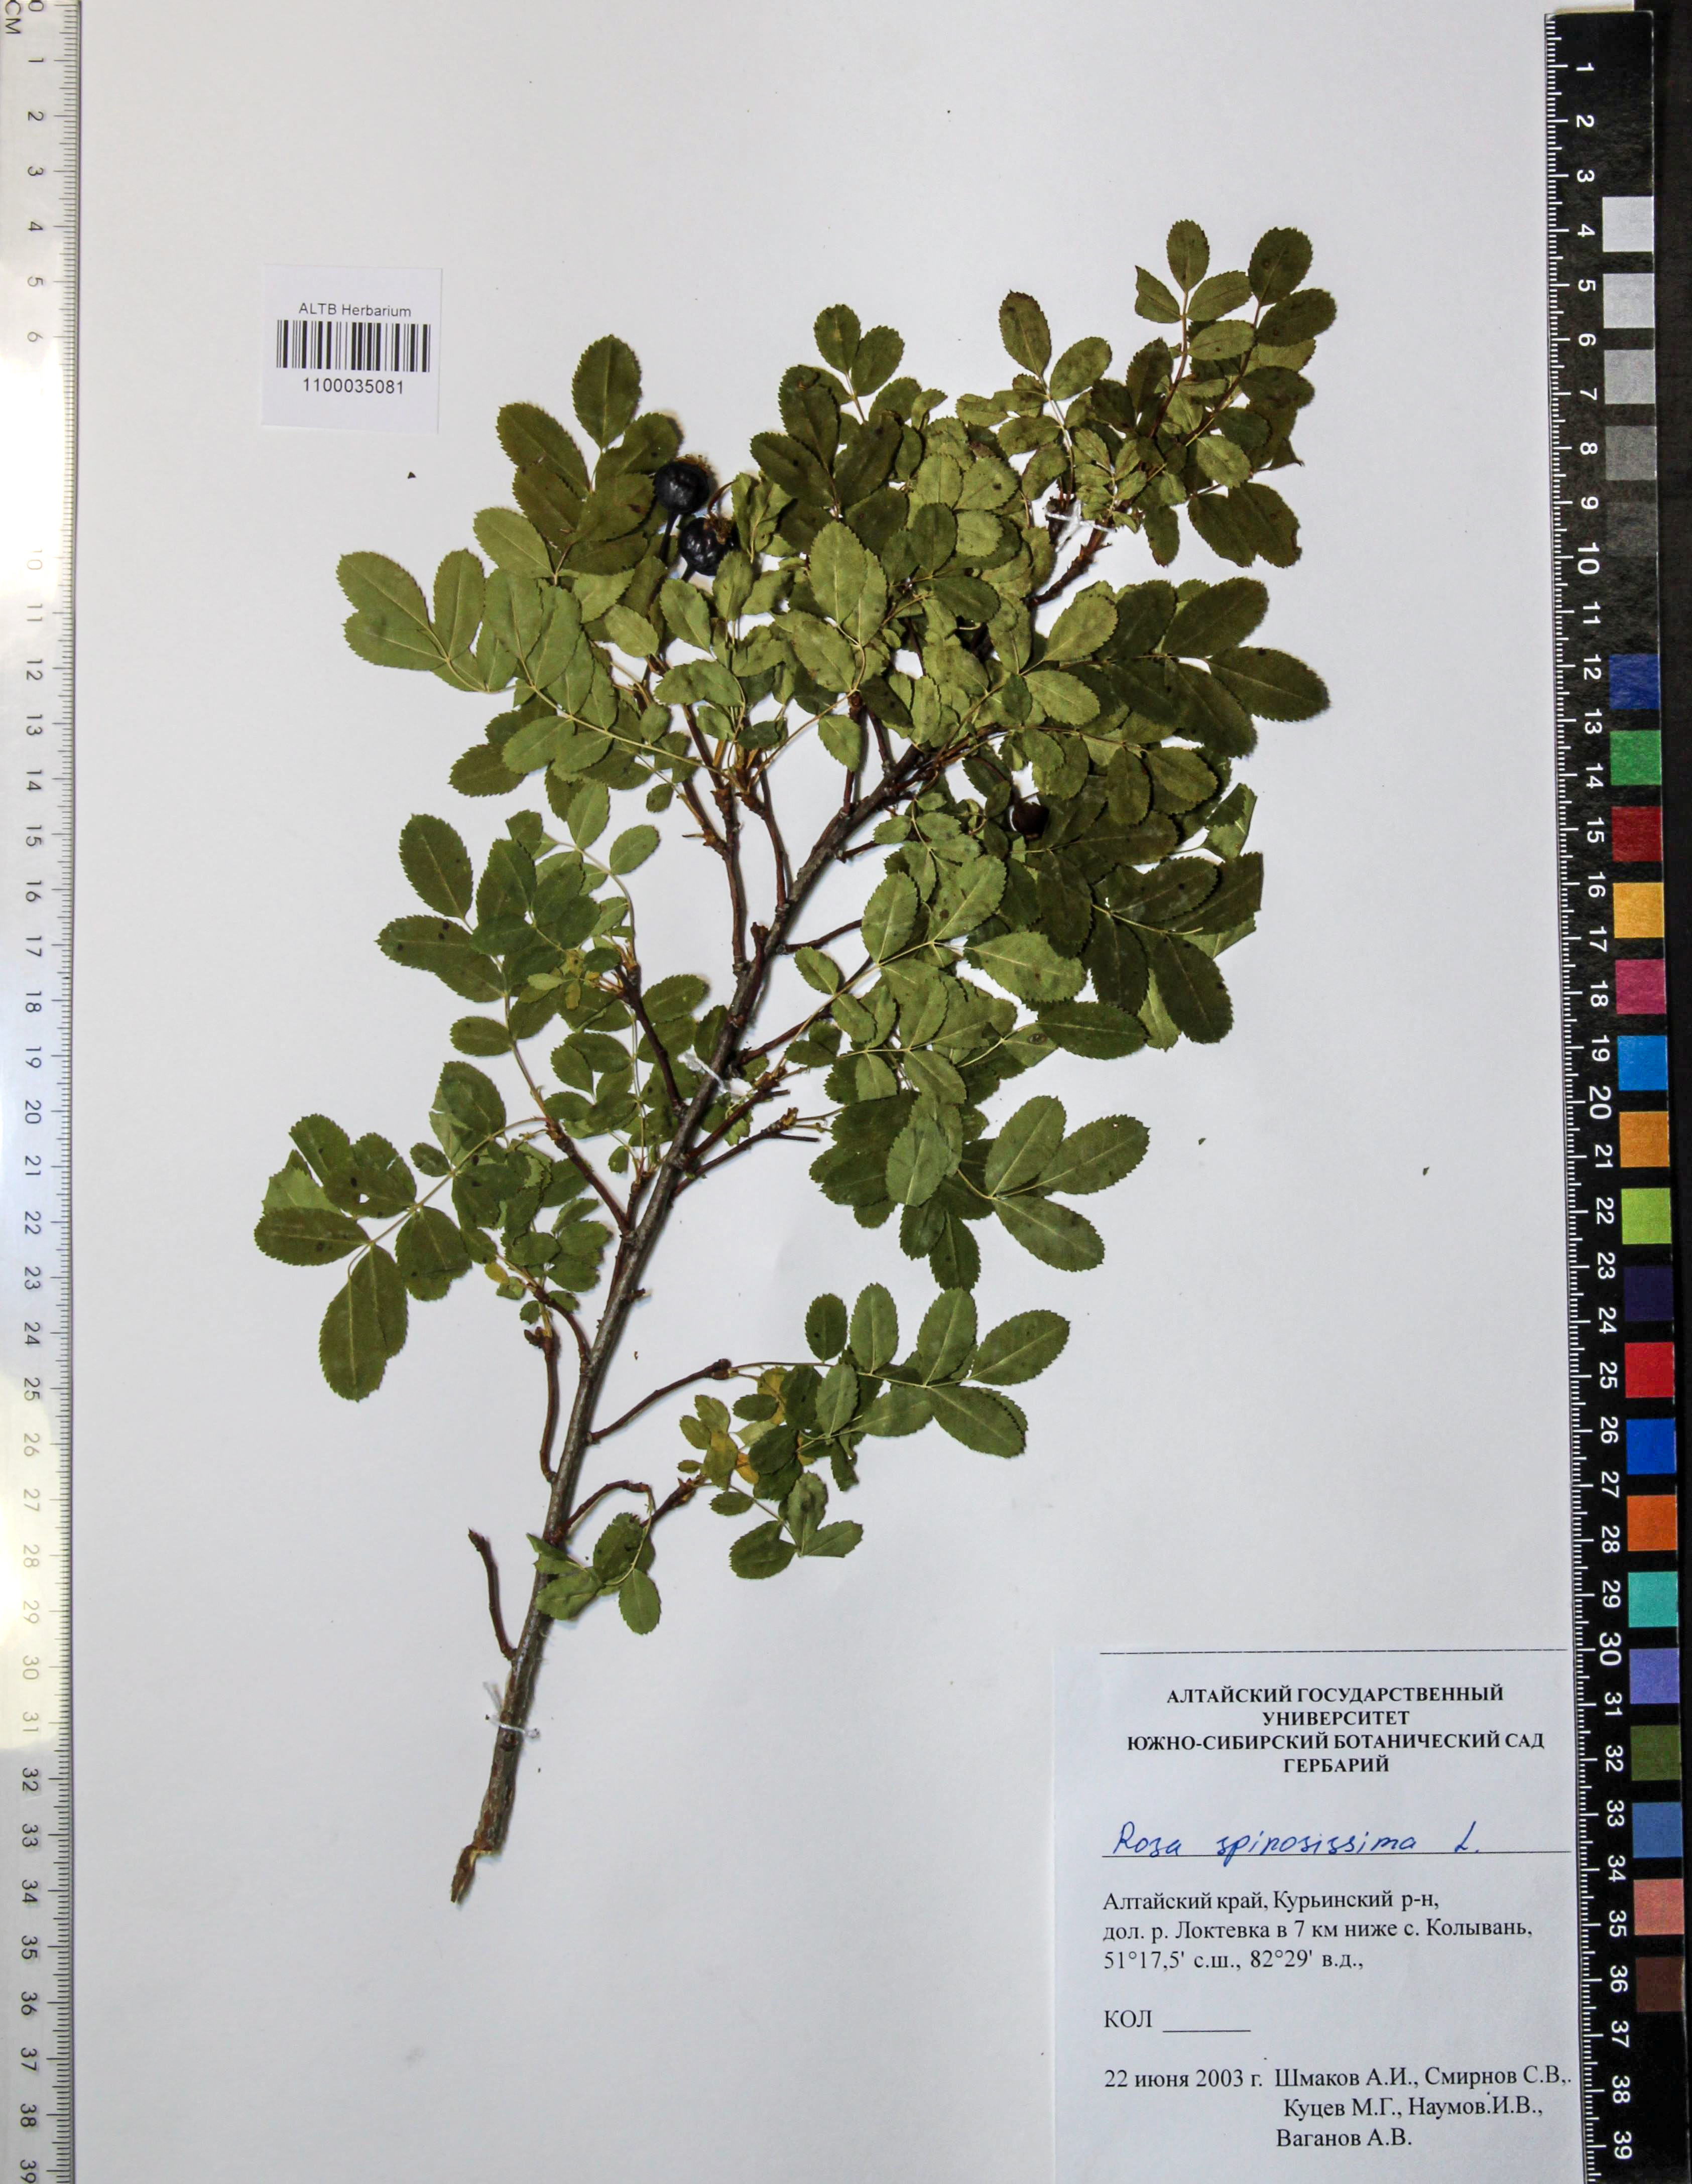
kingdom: Plantae
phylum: Tracheophyta
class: Magnoliopsida
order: Rosales
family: Rosaceae
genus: Rosa
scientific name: Rosa spinosissima
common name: Burnet rose
